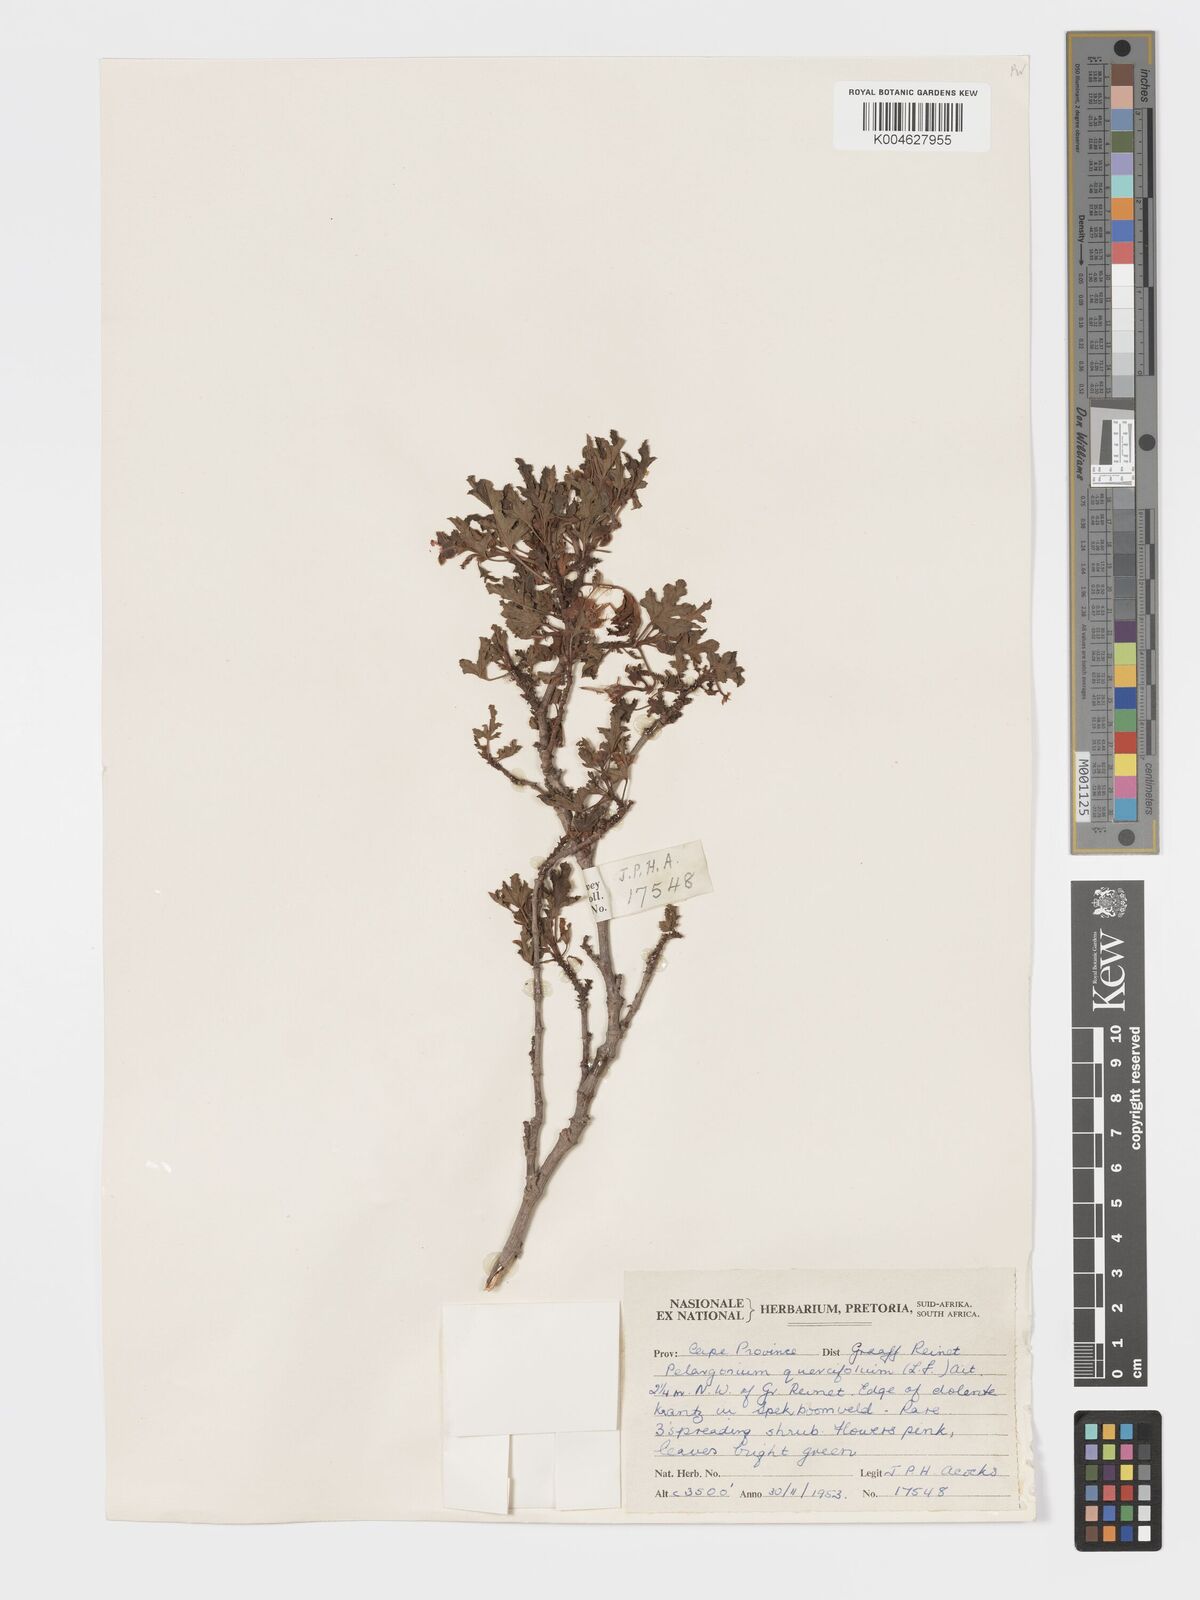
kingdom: Plantae
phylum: Tracheophyta
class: Magnoliopsida
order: Geraniales
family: Geraniaceae
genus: Pelargonium
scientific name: Pelargonium quercifolium
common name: Oakleaf geranium
